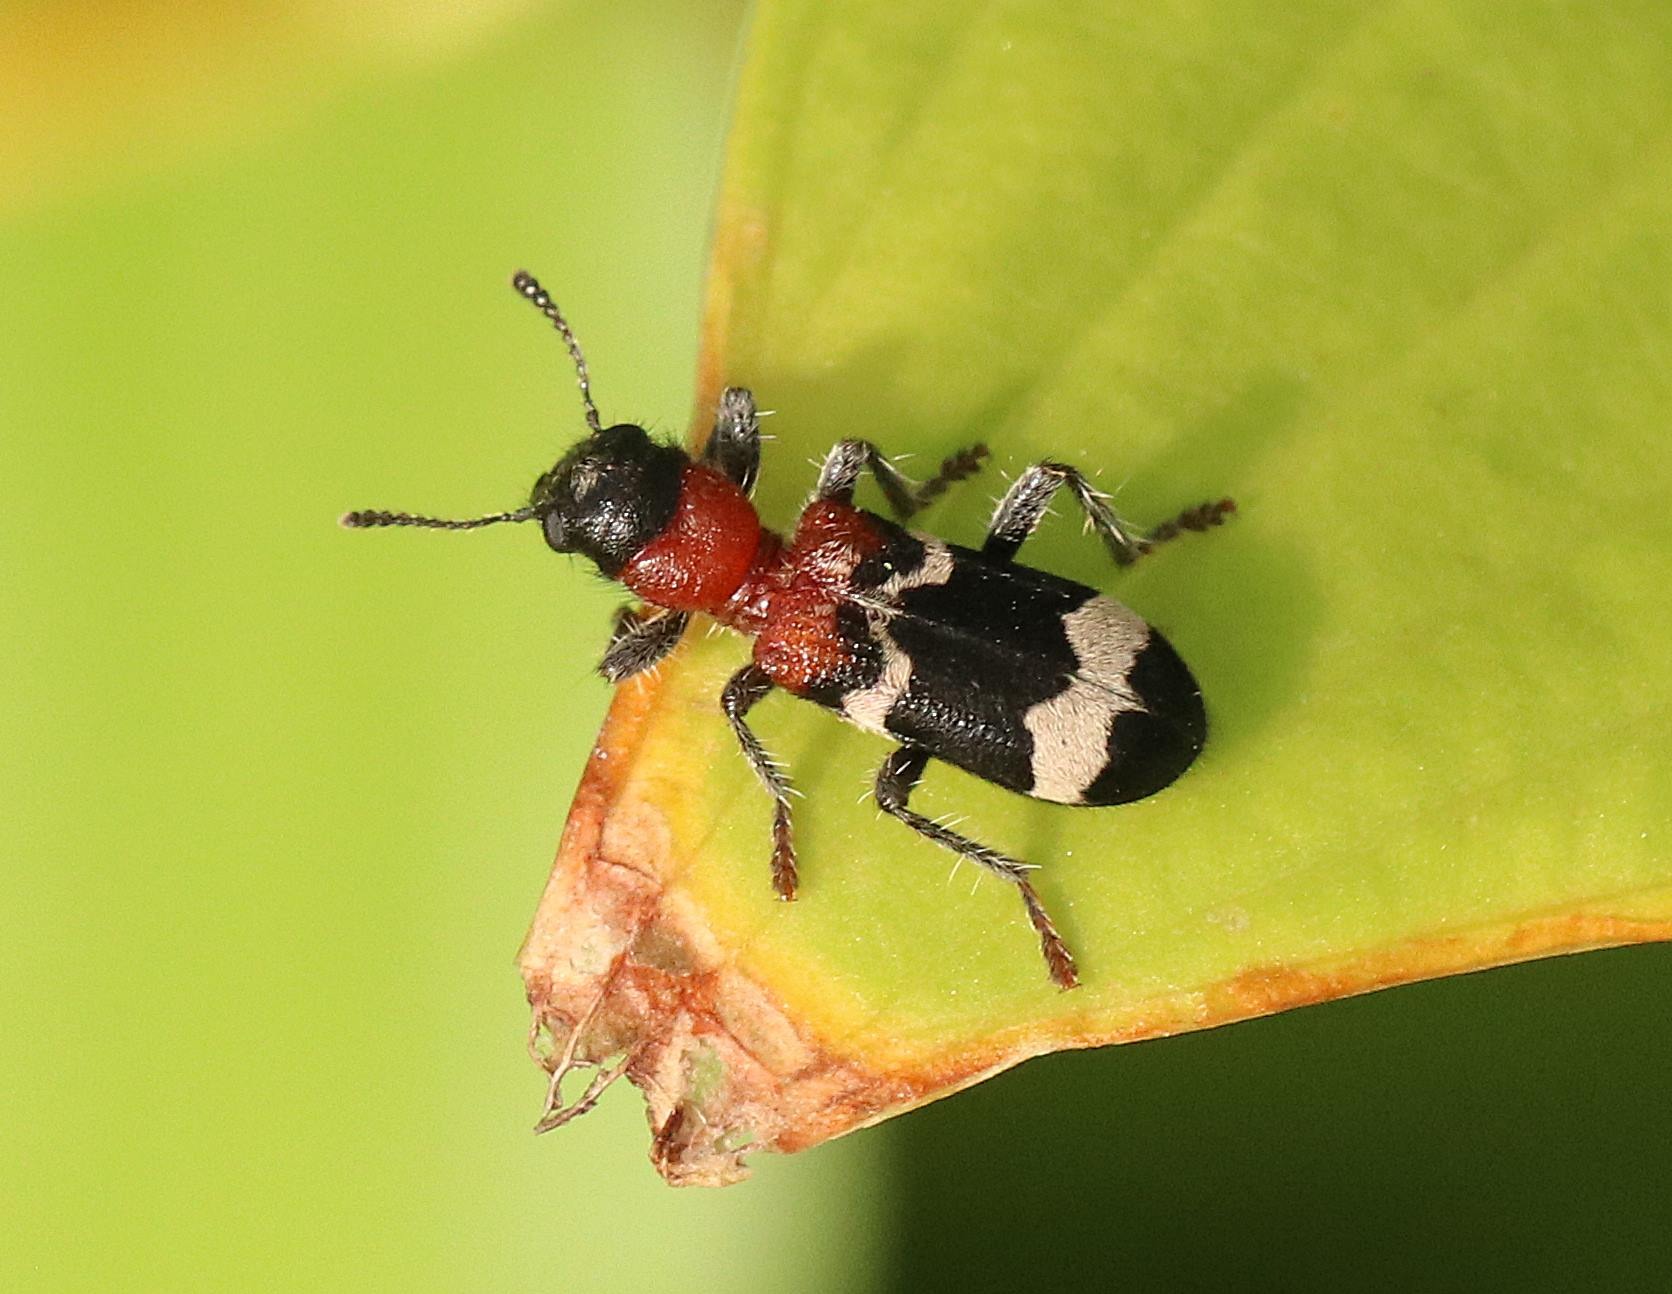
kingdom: Animalia
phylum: Arthropoda
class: Insecta
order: Coleoptera
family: Cleridae
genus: Thanasimus
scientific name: Thanasimus formicarius
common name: Myrebille
